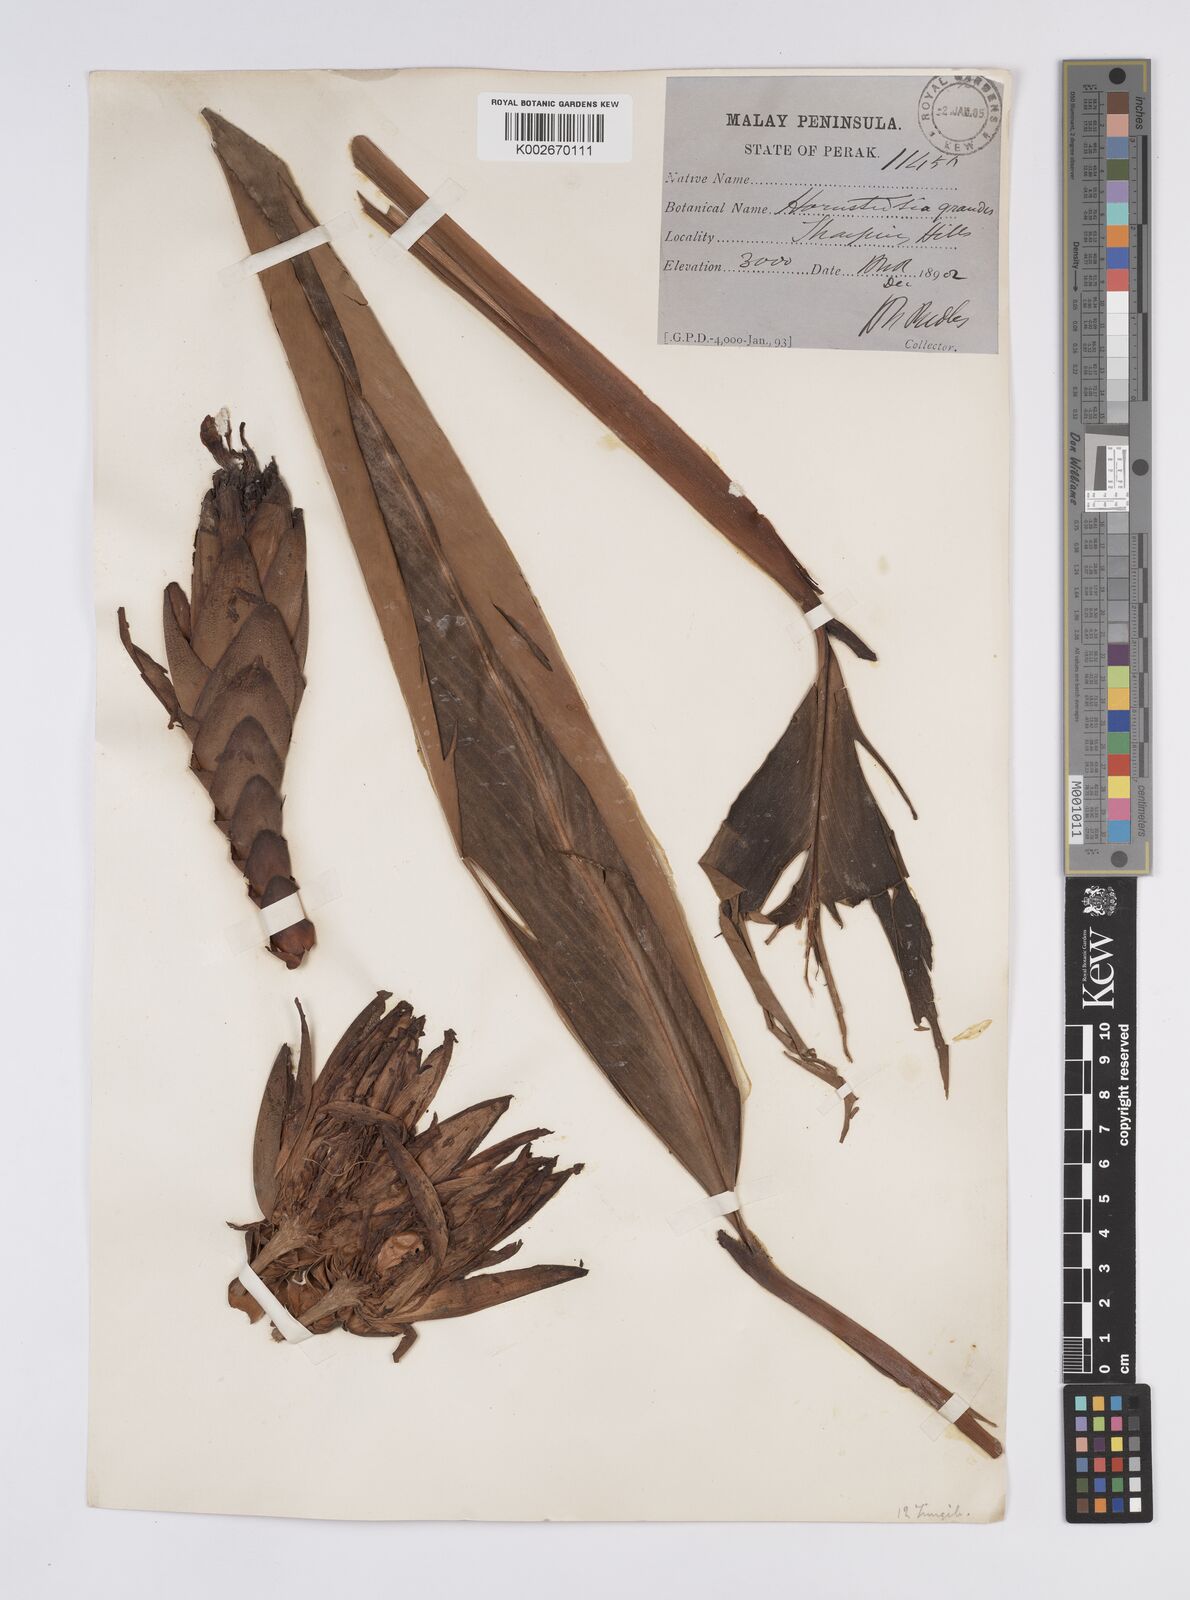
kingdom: Plantae
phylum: Tracheophyta
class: Liliopsida
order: Zingiberales
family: Zingiberaceae
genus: Hornstedtia
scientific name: Hornstedtia scyphifera
